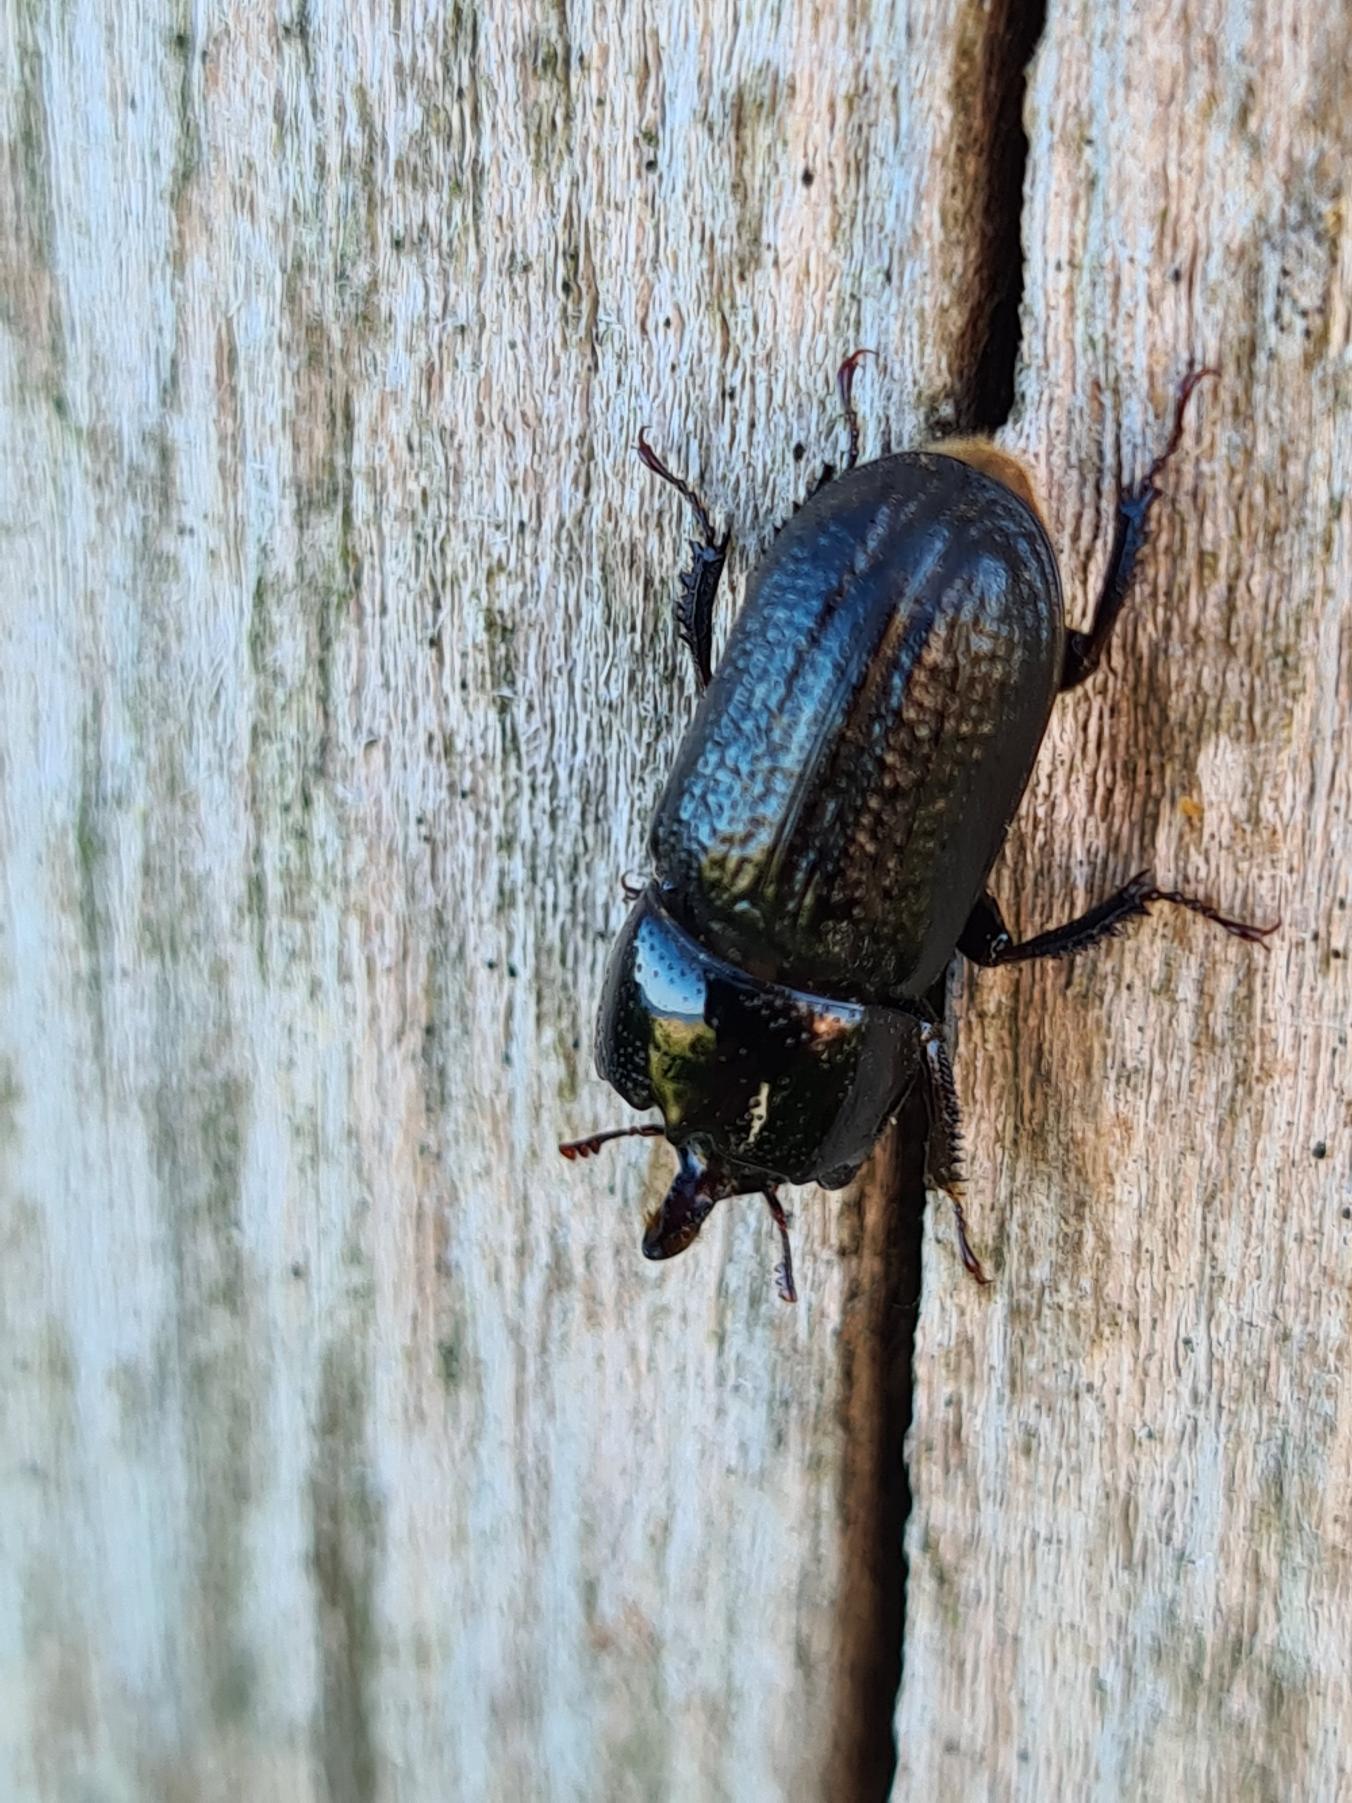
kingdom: Animalia
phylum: Arthropoda
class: Insecta
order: Coleoptera
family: Lucanidae
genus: Sinodendron
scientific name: Sinodendron cylindricum
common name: Valsehjort
